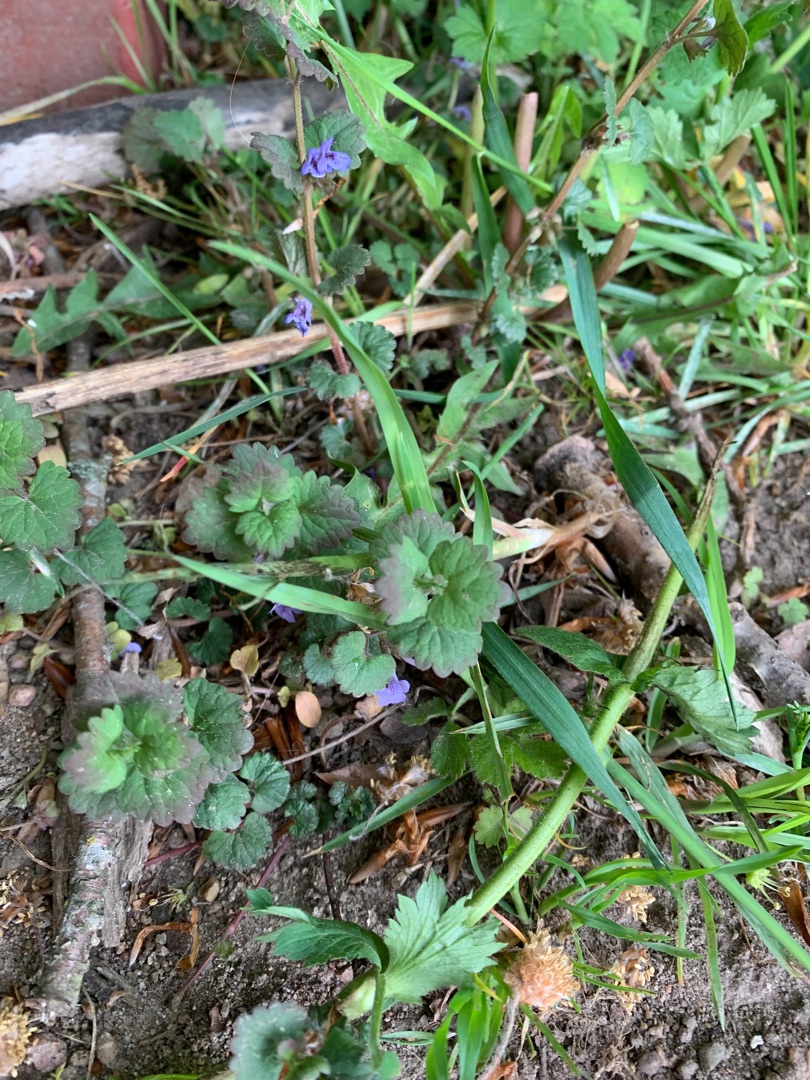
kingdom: Plantae
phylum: Tracheophyta
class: Magnoliopsida
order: Lamiales
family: Lamiaceae
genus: Glechoma
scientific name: Glechoma hederacea
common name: Korsknap
